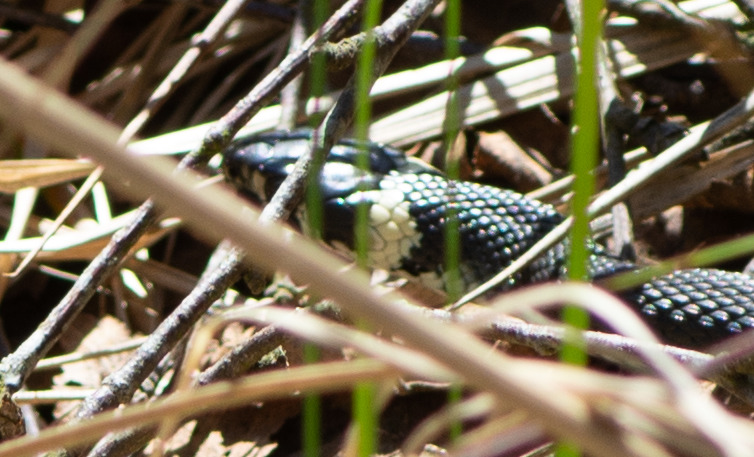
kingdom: Animalia
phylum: Chordata
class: Squamata
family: Colubridae
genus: Natrix
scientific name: Natrix natrix
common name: Snog
